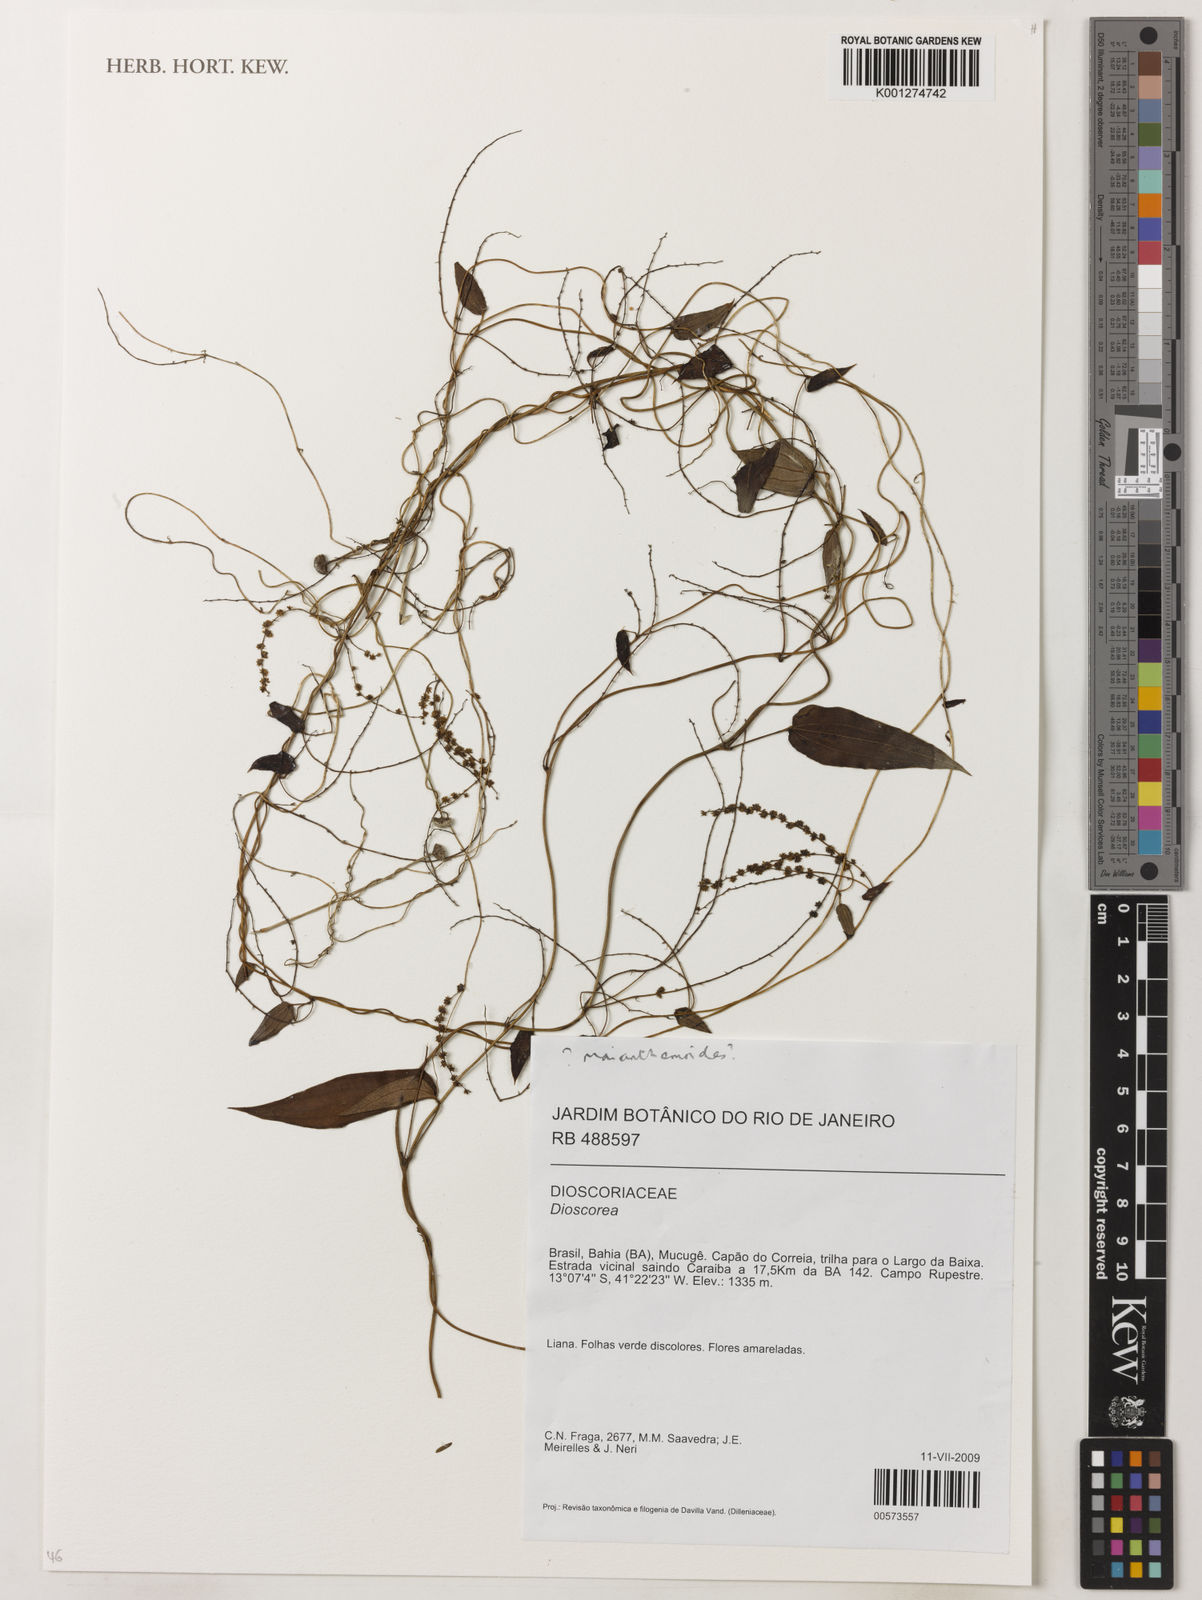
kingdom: Plantae
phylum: Tracheophyta
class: Liliopsida
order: Dioscoreales
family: Dioscoreaceae
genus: Dioscorea
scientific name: Dioscorea
